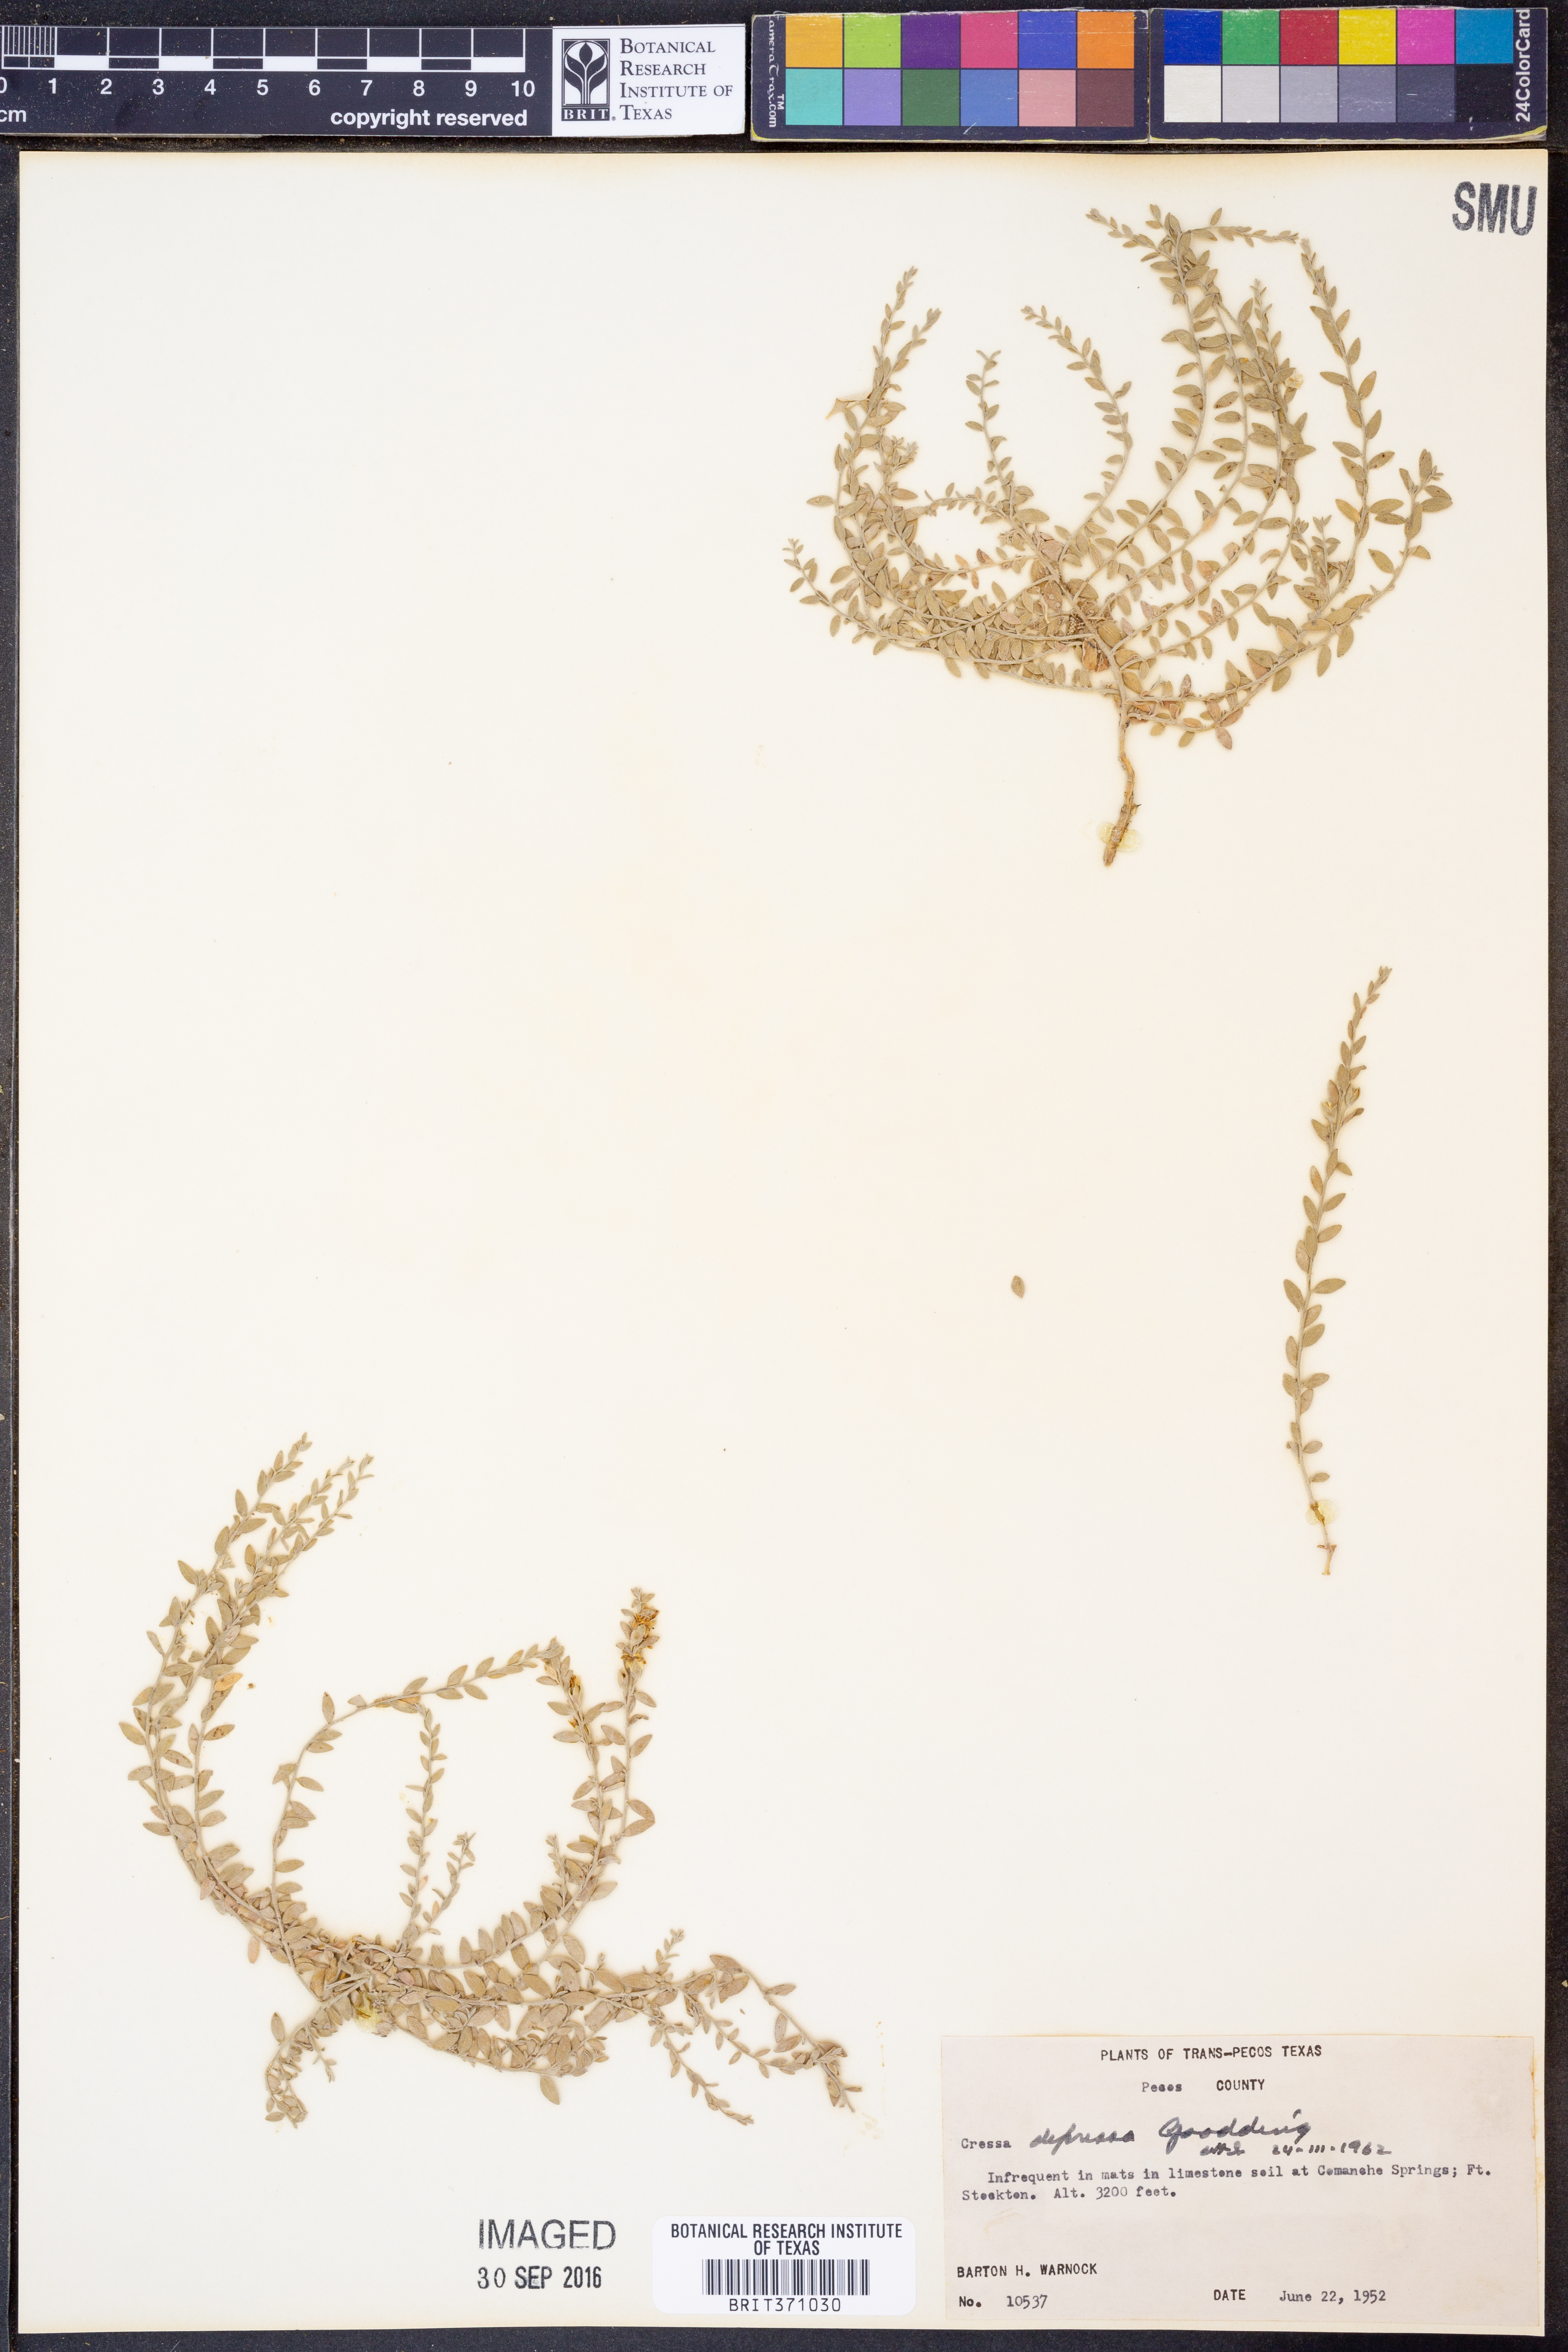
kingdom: Plantae
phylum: Tracheophyta
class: Magnoliopsida
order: Solanales
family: Convolvulaceae
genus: Cressa
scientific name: Cressa truxillensis
